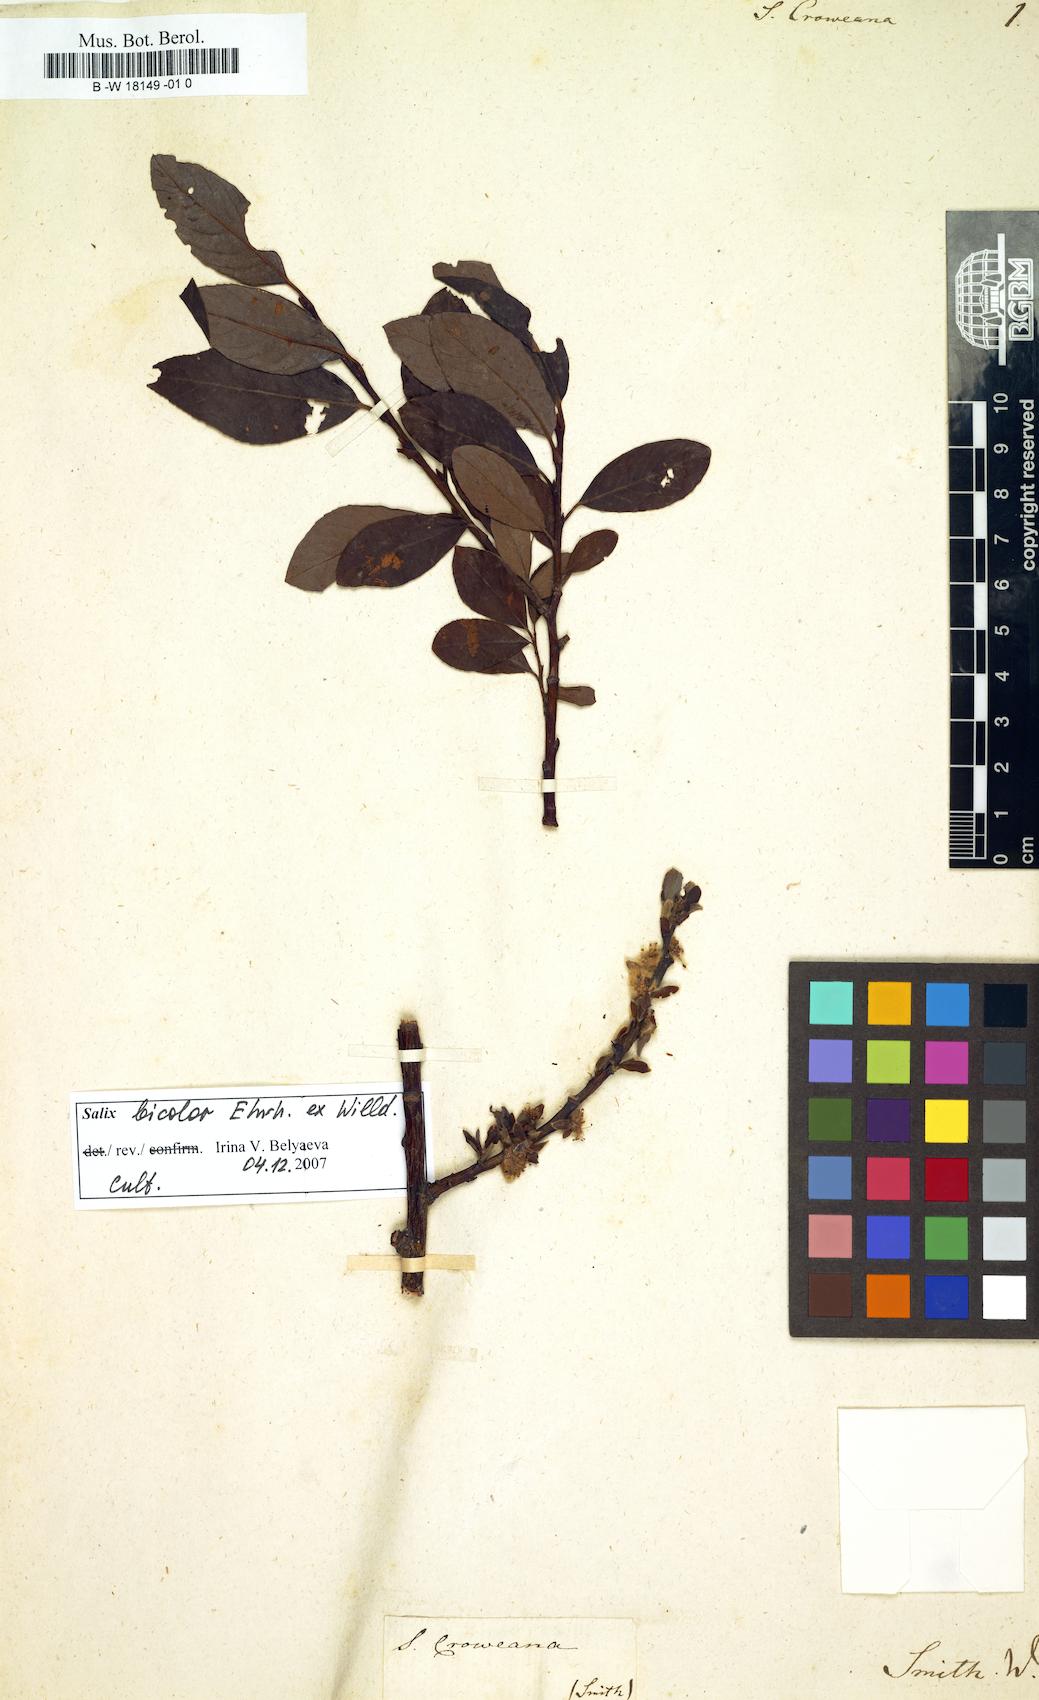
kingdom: Plantae
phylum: Tracheophyta
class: Magnoliopsida
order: Malpighiales
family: Salicaceae
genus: Salix
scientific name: Salix phylicifolia
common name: Tea-leaved willow
